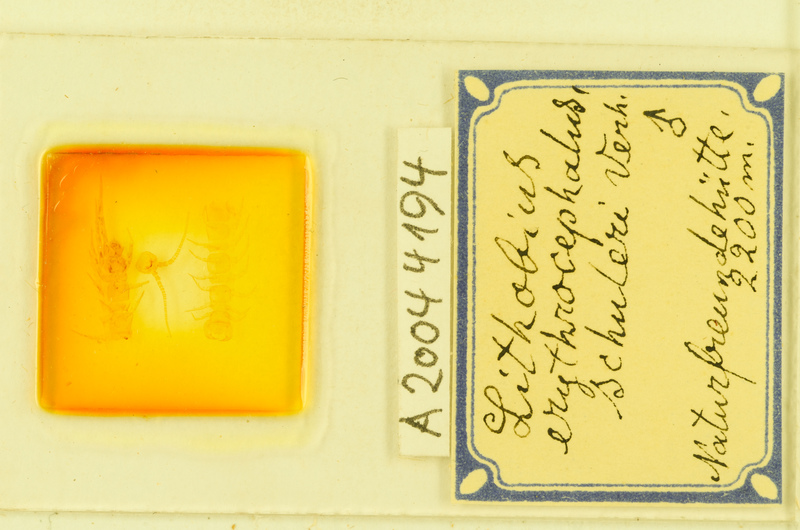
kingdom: Animalia
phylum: Arthropoda
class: Chilopoda
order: Lithobiomorpha
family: Lithobiidae
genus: Lithobius
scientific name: Lithobius erythrocephalus
